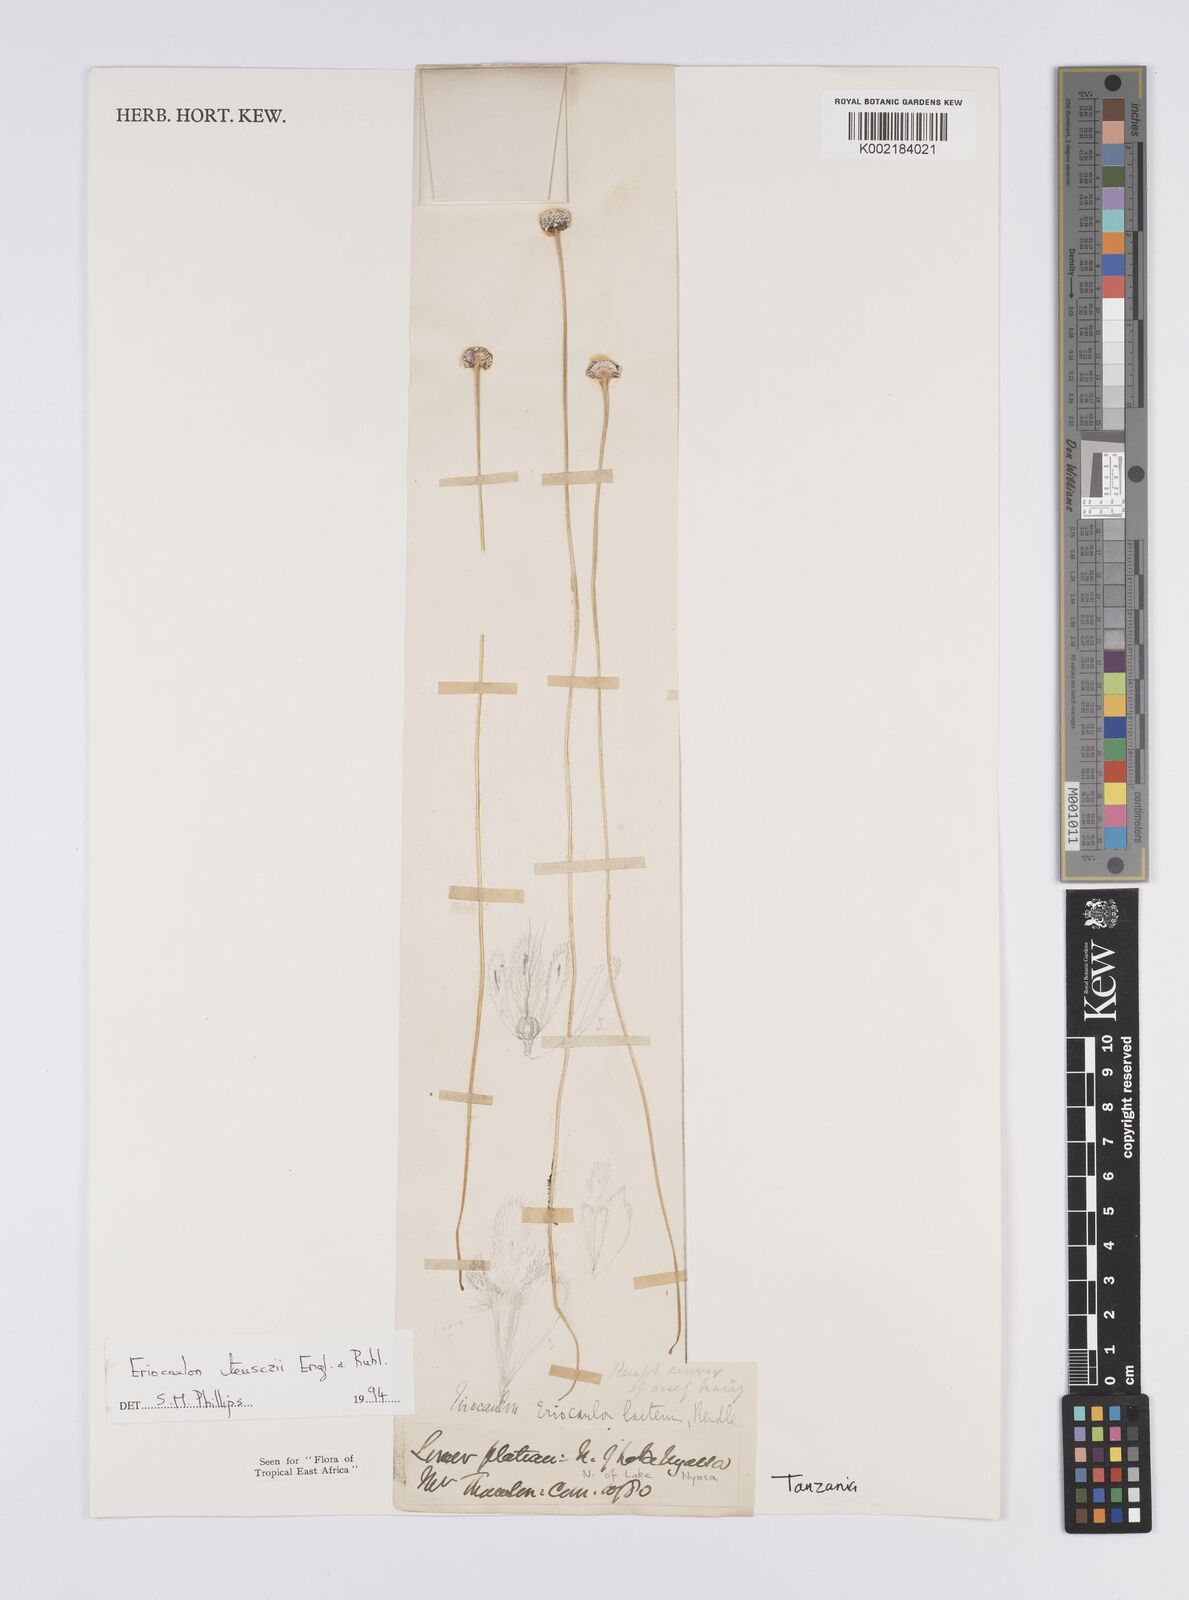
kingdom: Plantae
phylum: Tracheophyta
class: Liliopsida
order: Poales
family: Eriocaulaceae
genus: Eriocaulon
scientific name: Eriocaulon teusczii
